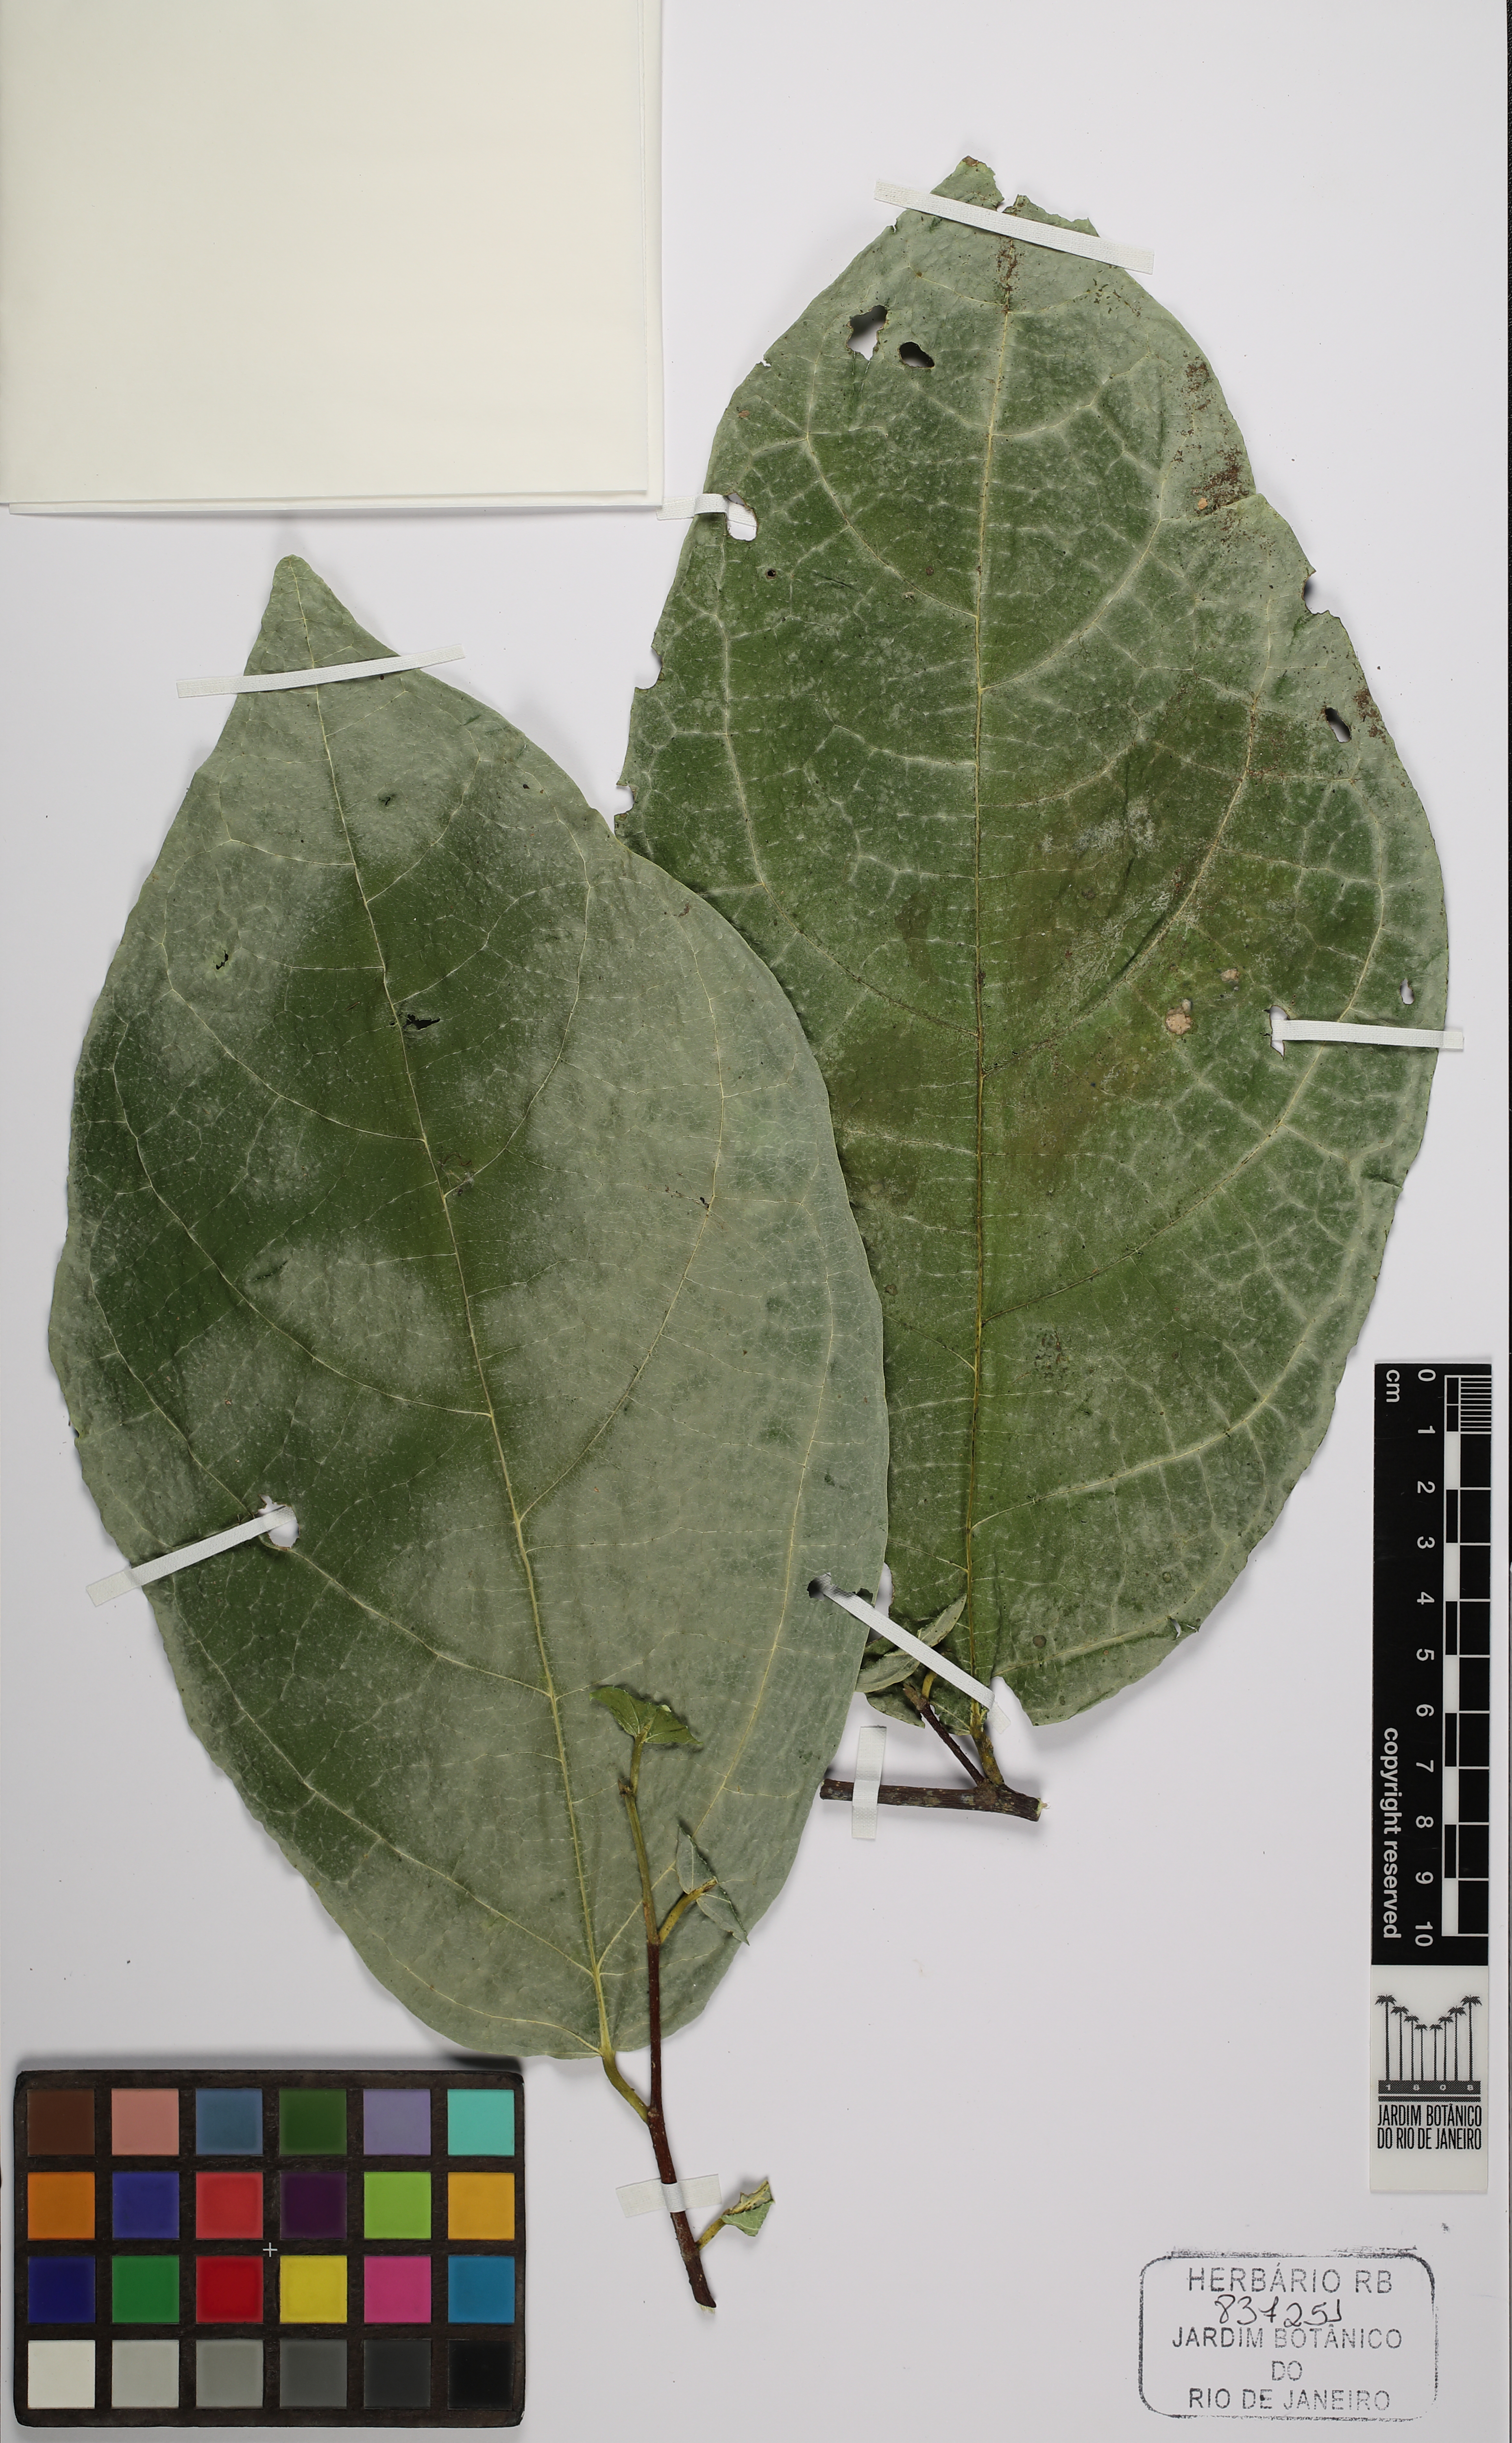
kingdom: Plantae
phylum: Tracheophyta
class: Magnoliopsida
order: Malvales
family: Malvaceae
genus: Quararibea
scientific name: Quararibea turbinata
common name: Swizzlestick-tree
